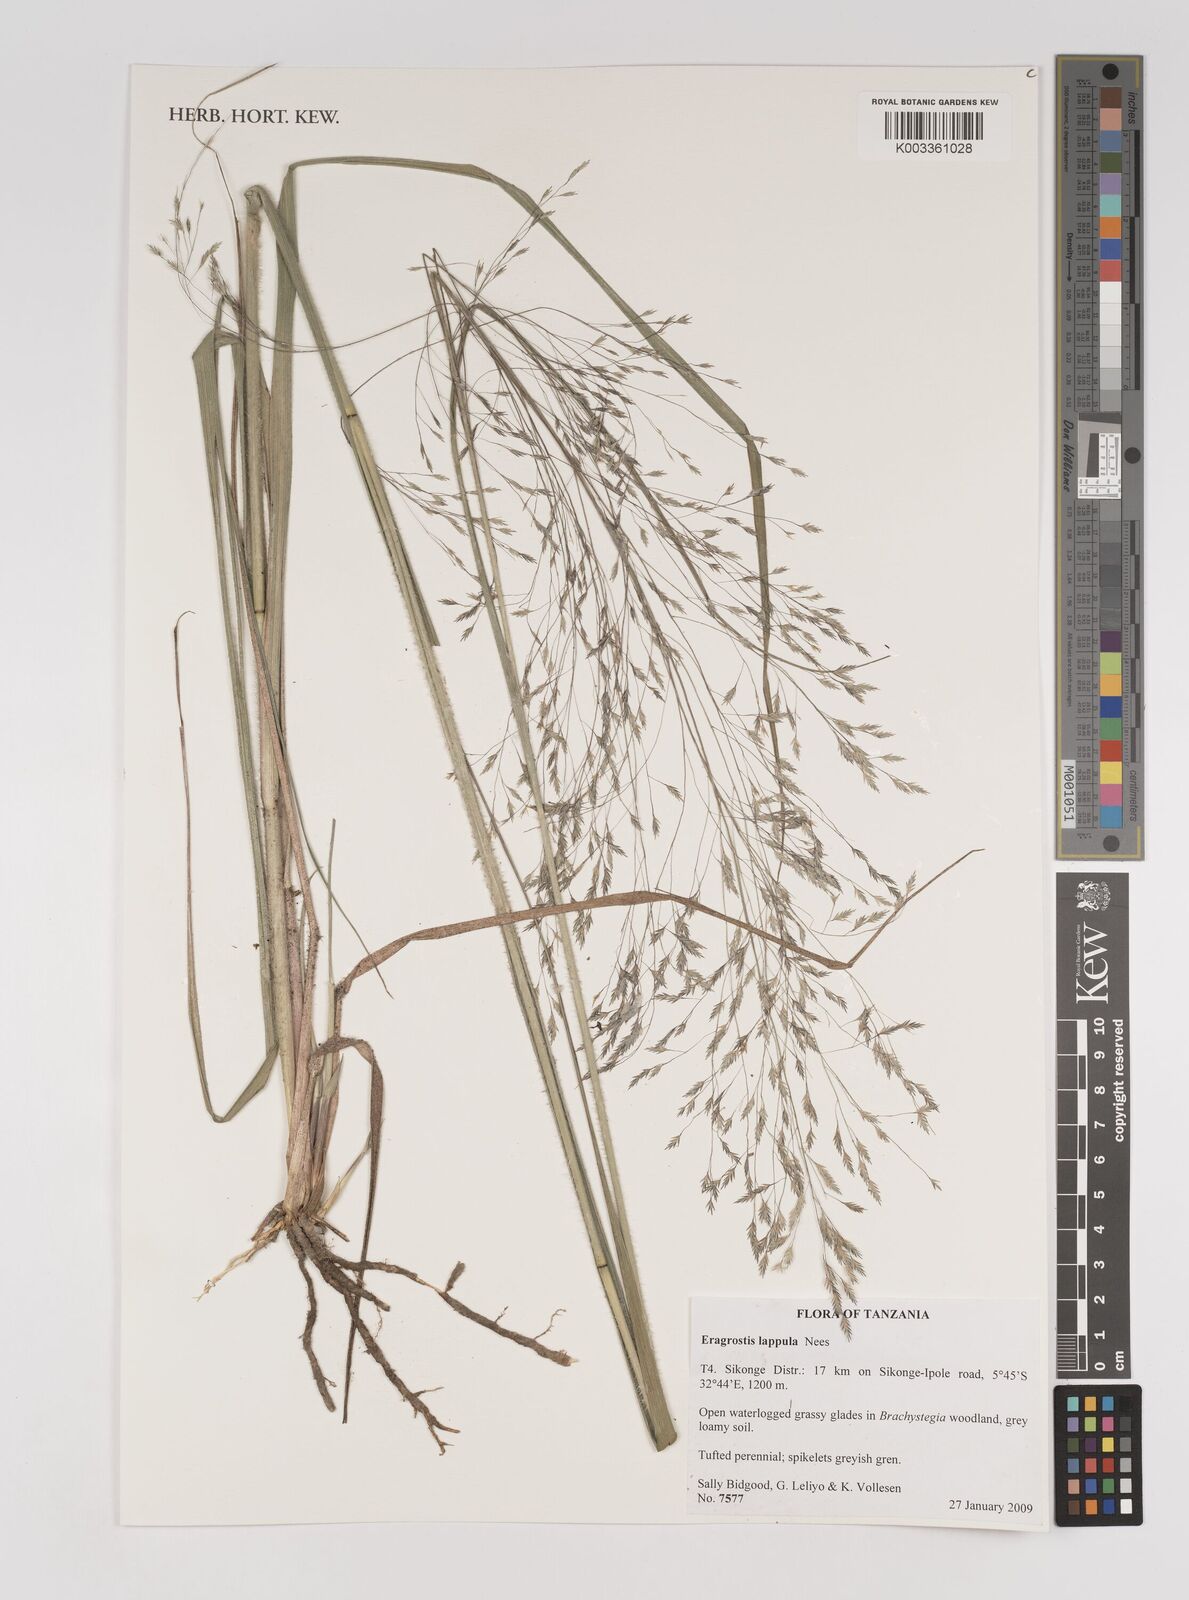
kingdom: Plantae
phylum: Tracheophyta
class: Liliopsida
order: Poales
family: Poaceae
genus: Eragrostis
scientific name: Eragrostis lappula
